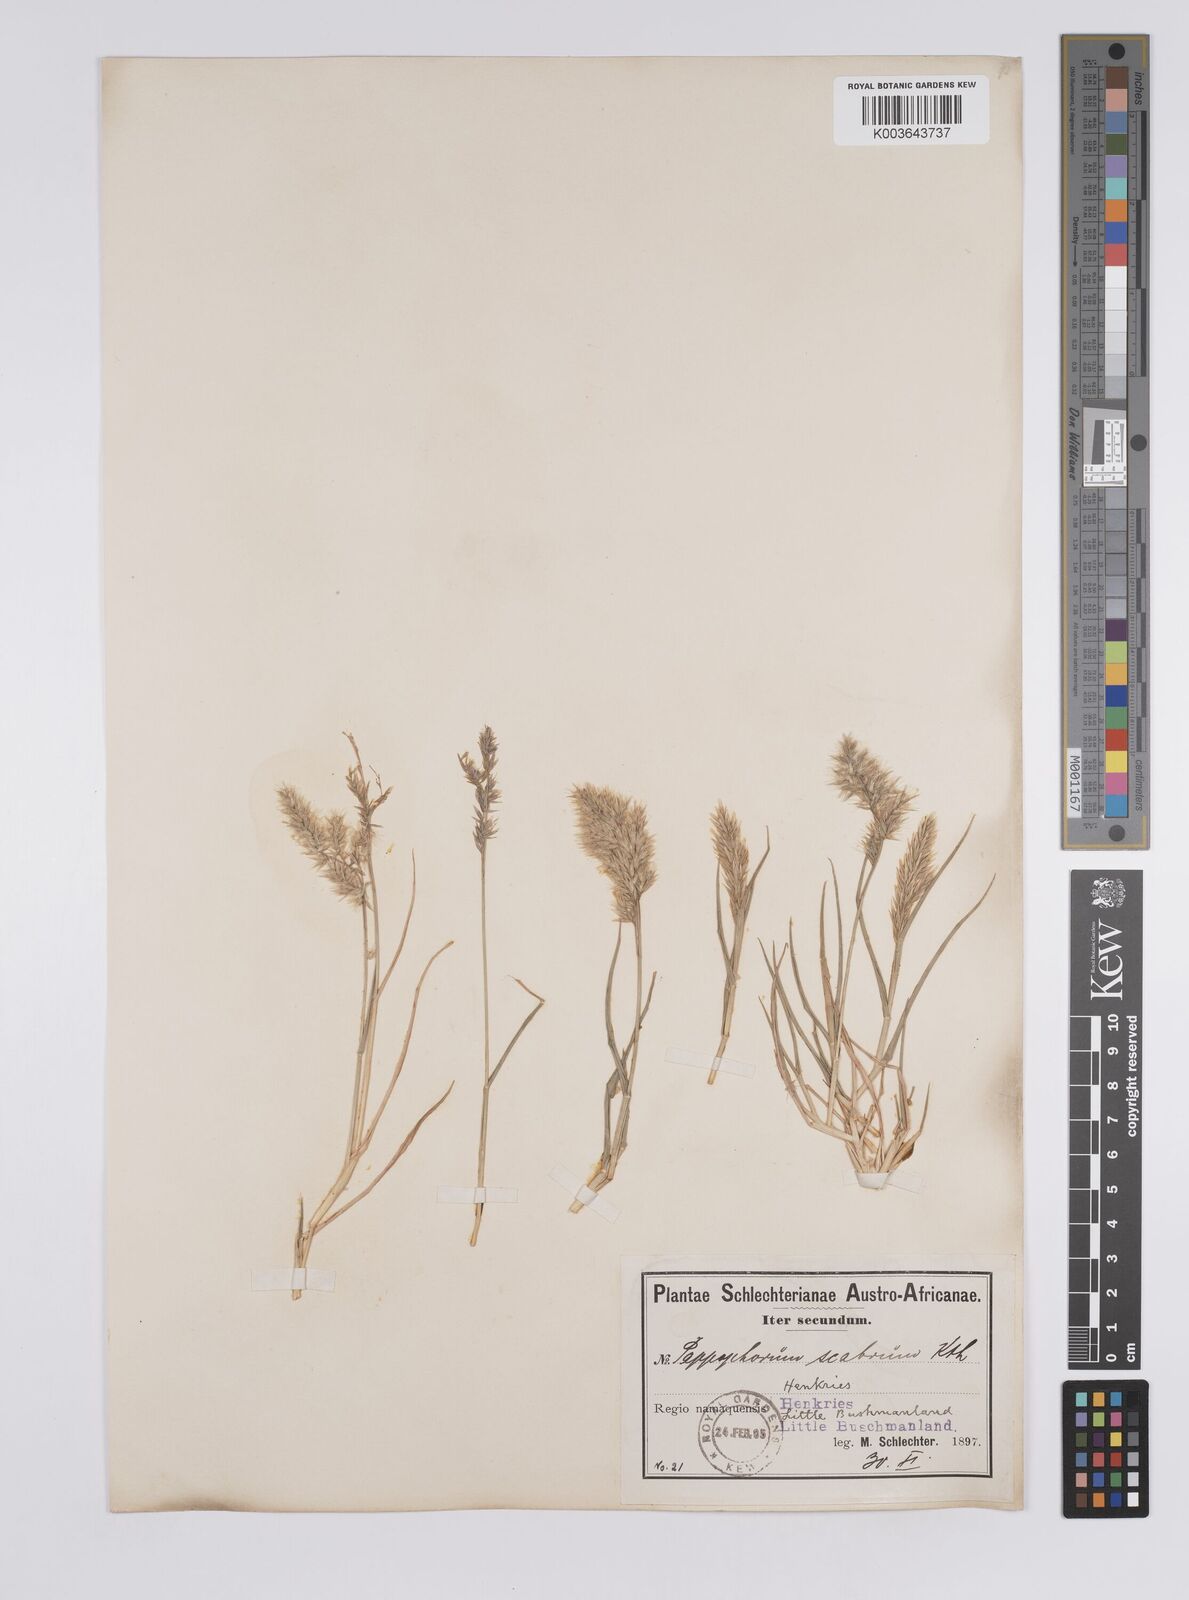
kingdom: Plantae
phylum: Tracheophyta
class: Liliopsida
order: Poales
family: Poaceae
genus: Enneapogon
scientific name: Enneapogon scaber
